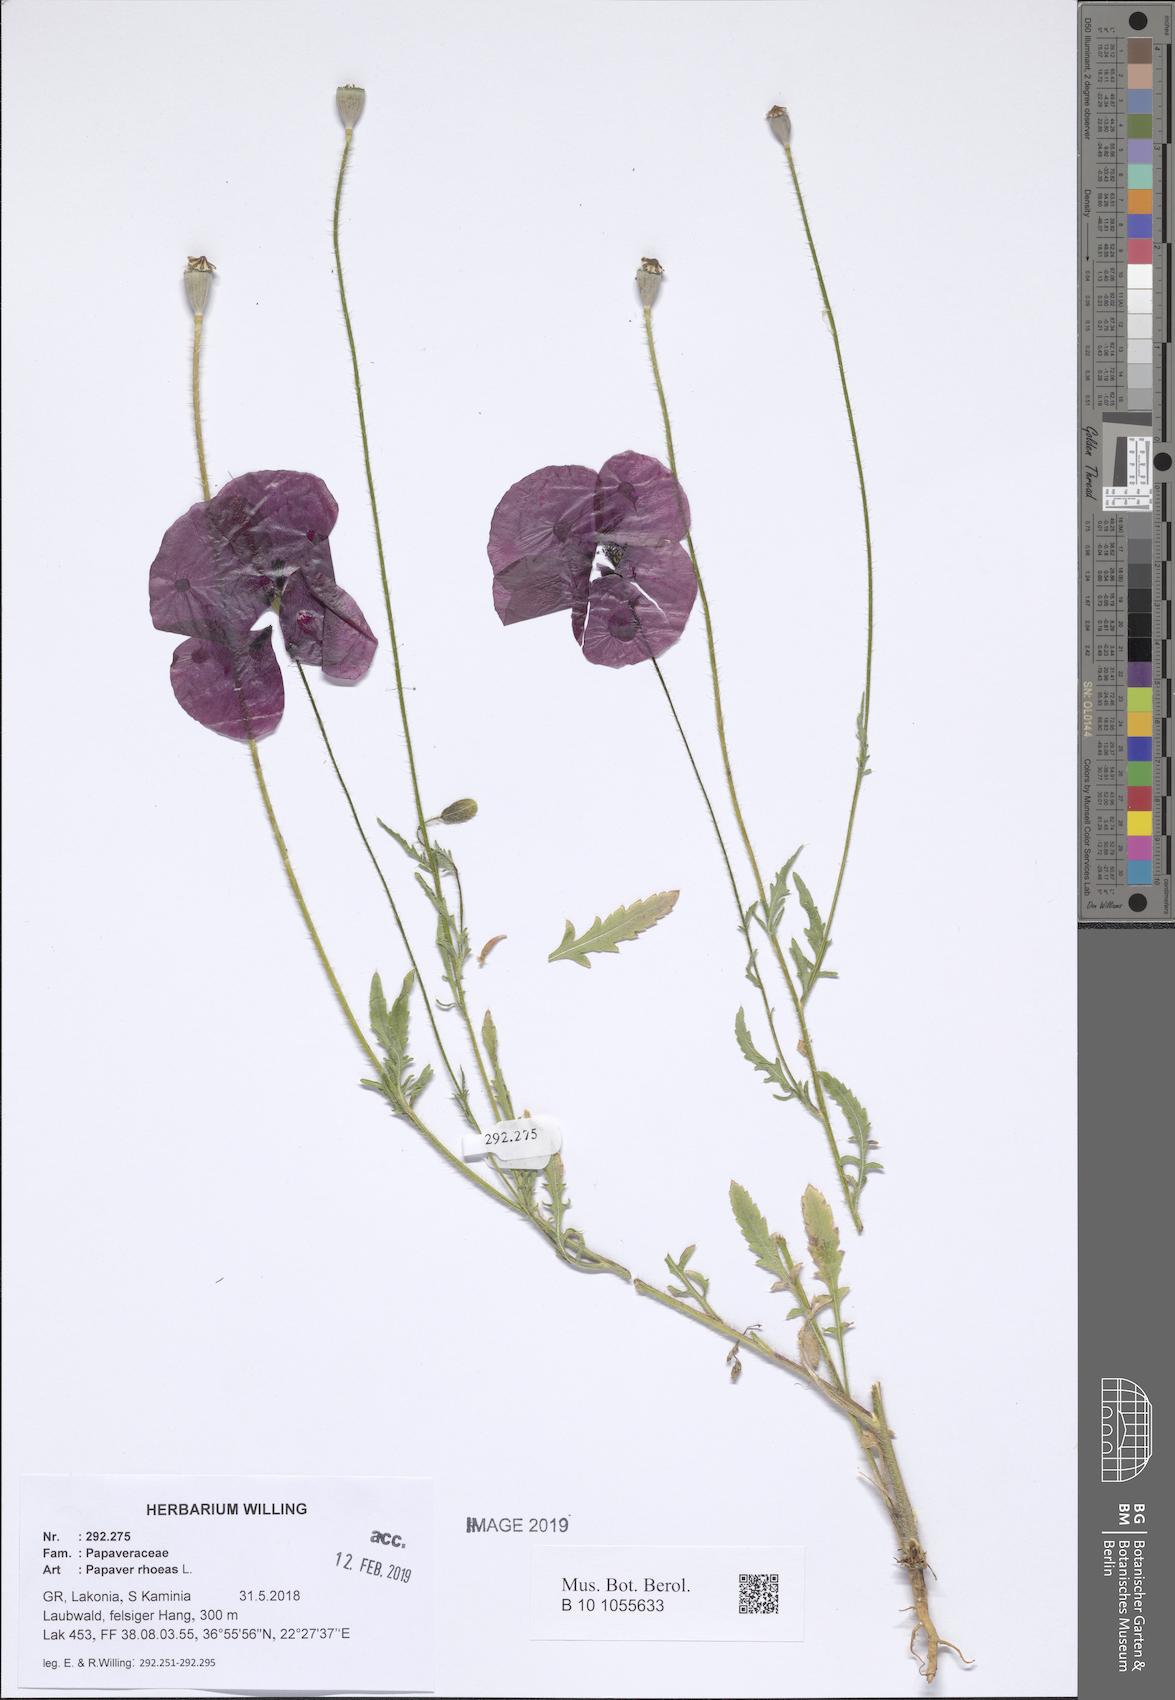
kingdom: Plantae
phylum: Tracheophyta
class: Magnoliopsida
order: Ranunculales
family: Papaveraceae
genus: Papaver
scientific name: Papaver rhoeas
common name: Corn poppy
